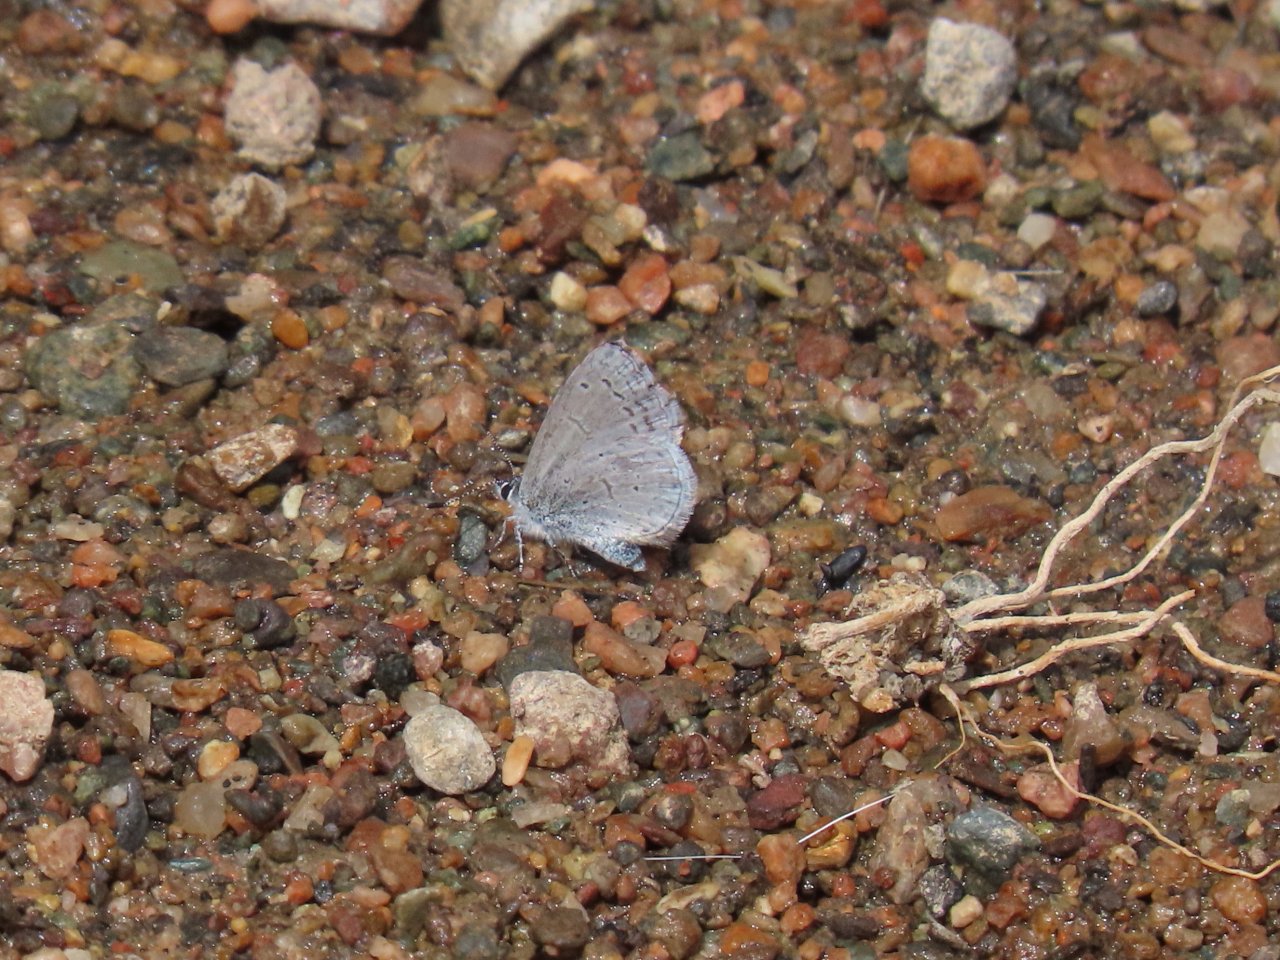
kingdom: Animalia
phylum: Arthropoda
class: Insecta
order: Lepidoptera
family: Lycaenidae
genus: Celastrina
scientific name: Celastrina ladon
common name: Echo Azure
